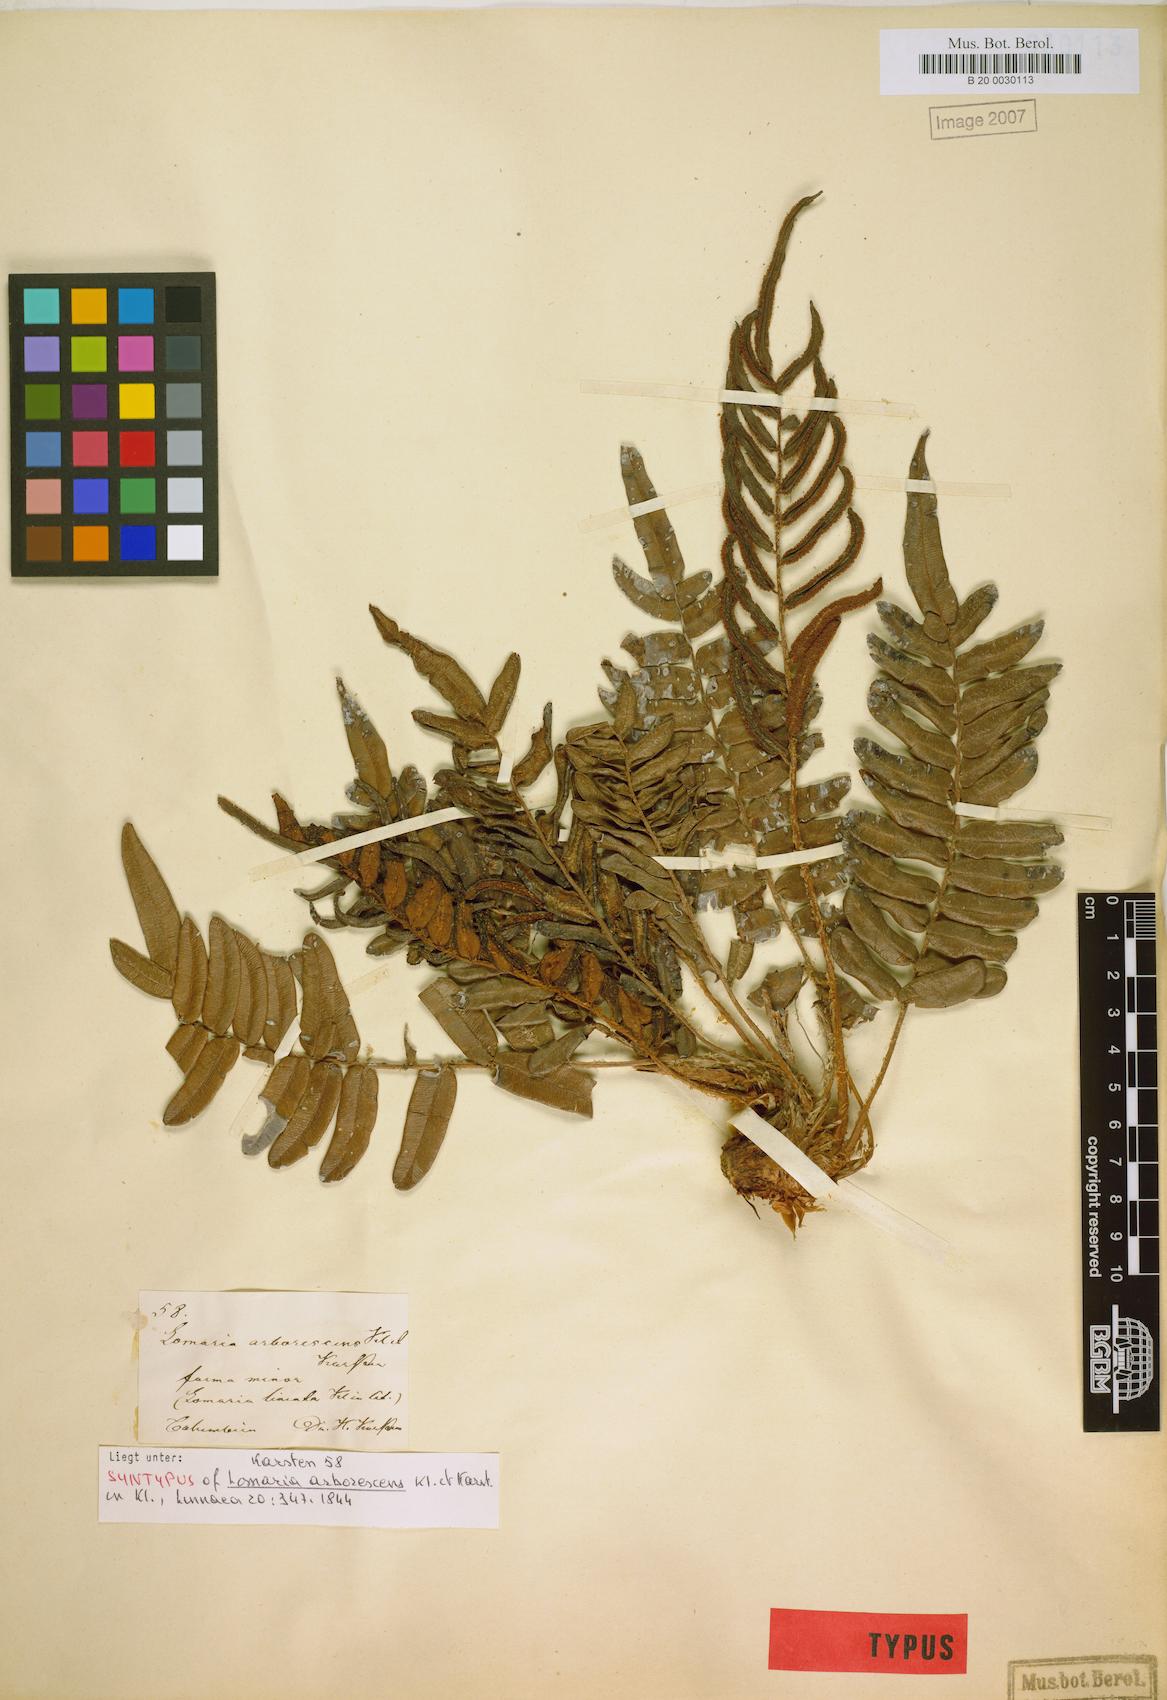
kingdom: Plantae
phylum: Tracheophyta
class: Polypodiopsida
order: Polypodiales
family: Blechnaceae
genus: Parablechnum
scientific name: Parablechnum cordatum
